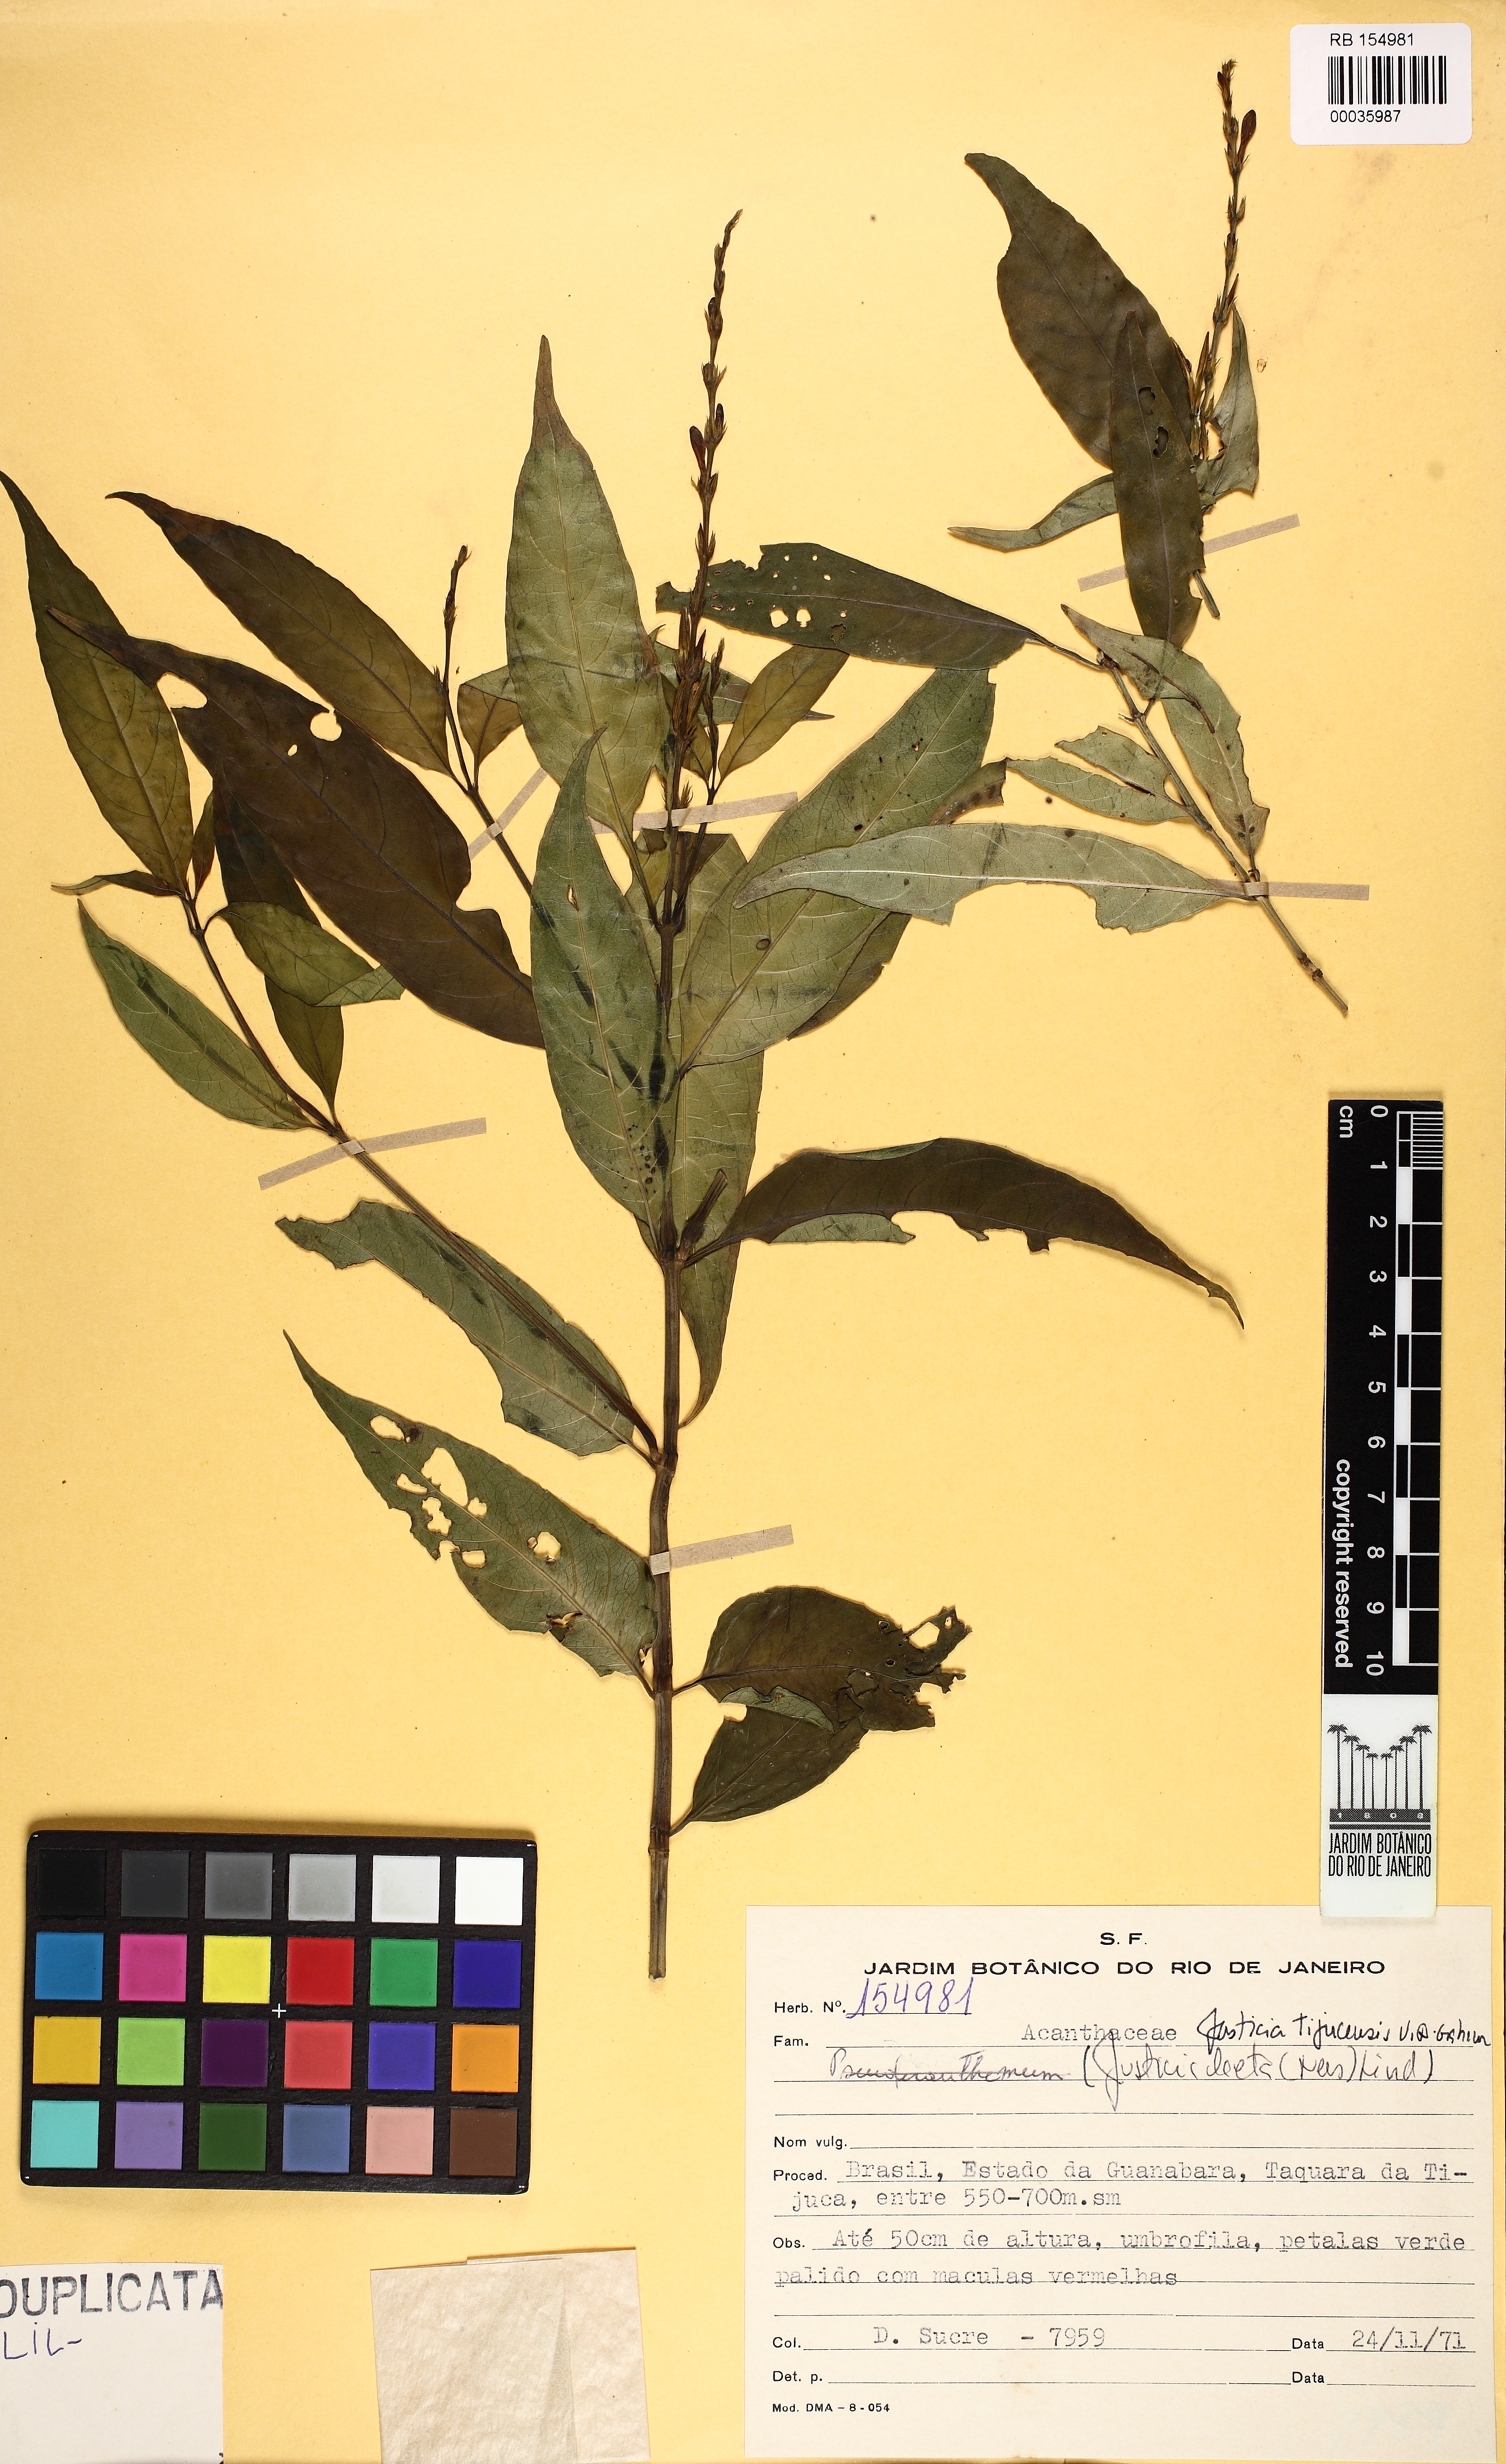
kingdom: Plantae
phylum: Tracheophyta
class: Magnoliopsida
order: Lamiales
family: Acanthaceae
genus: Dianthera
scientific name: Dianthera laeta
